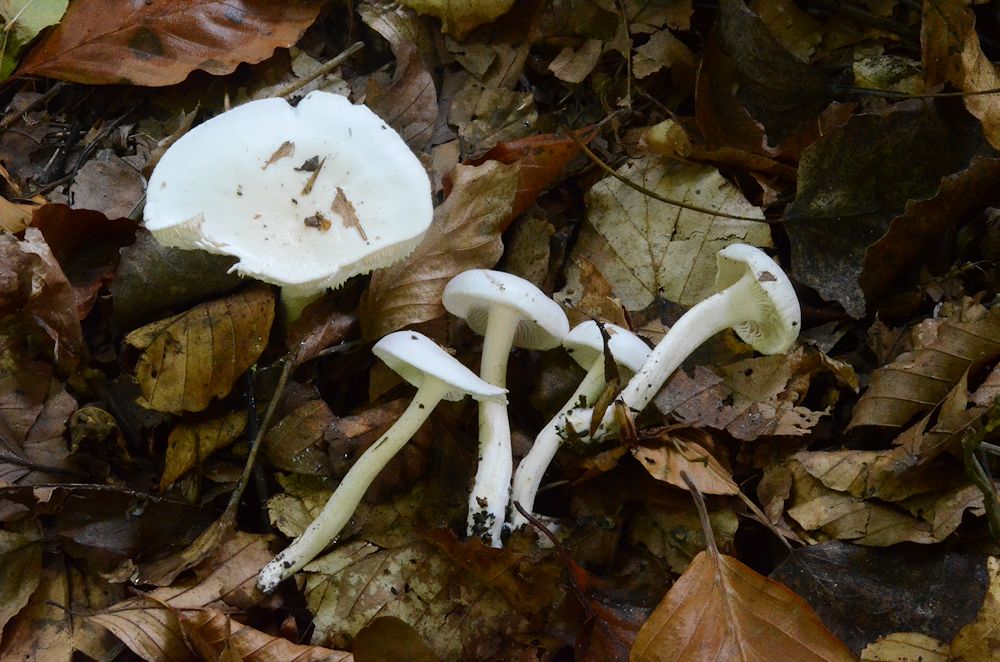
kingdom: Fungi
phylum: Basidiomycota
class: Agaricomycetes
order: Agaricales
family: Hygrophoraceae
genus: Hygrophorus
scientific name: Hygrophorus eburneus
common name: elfenbens-sneglehat
